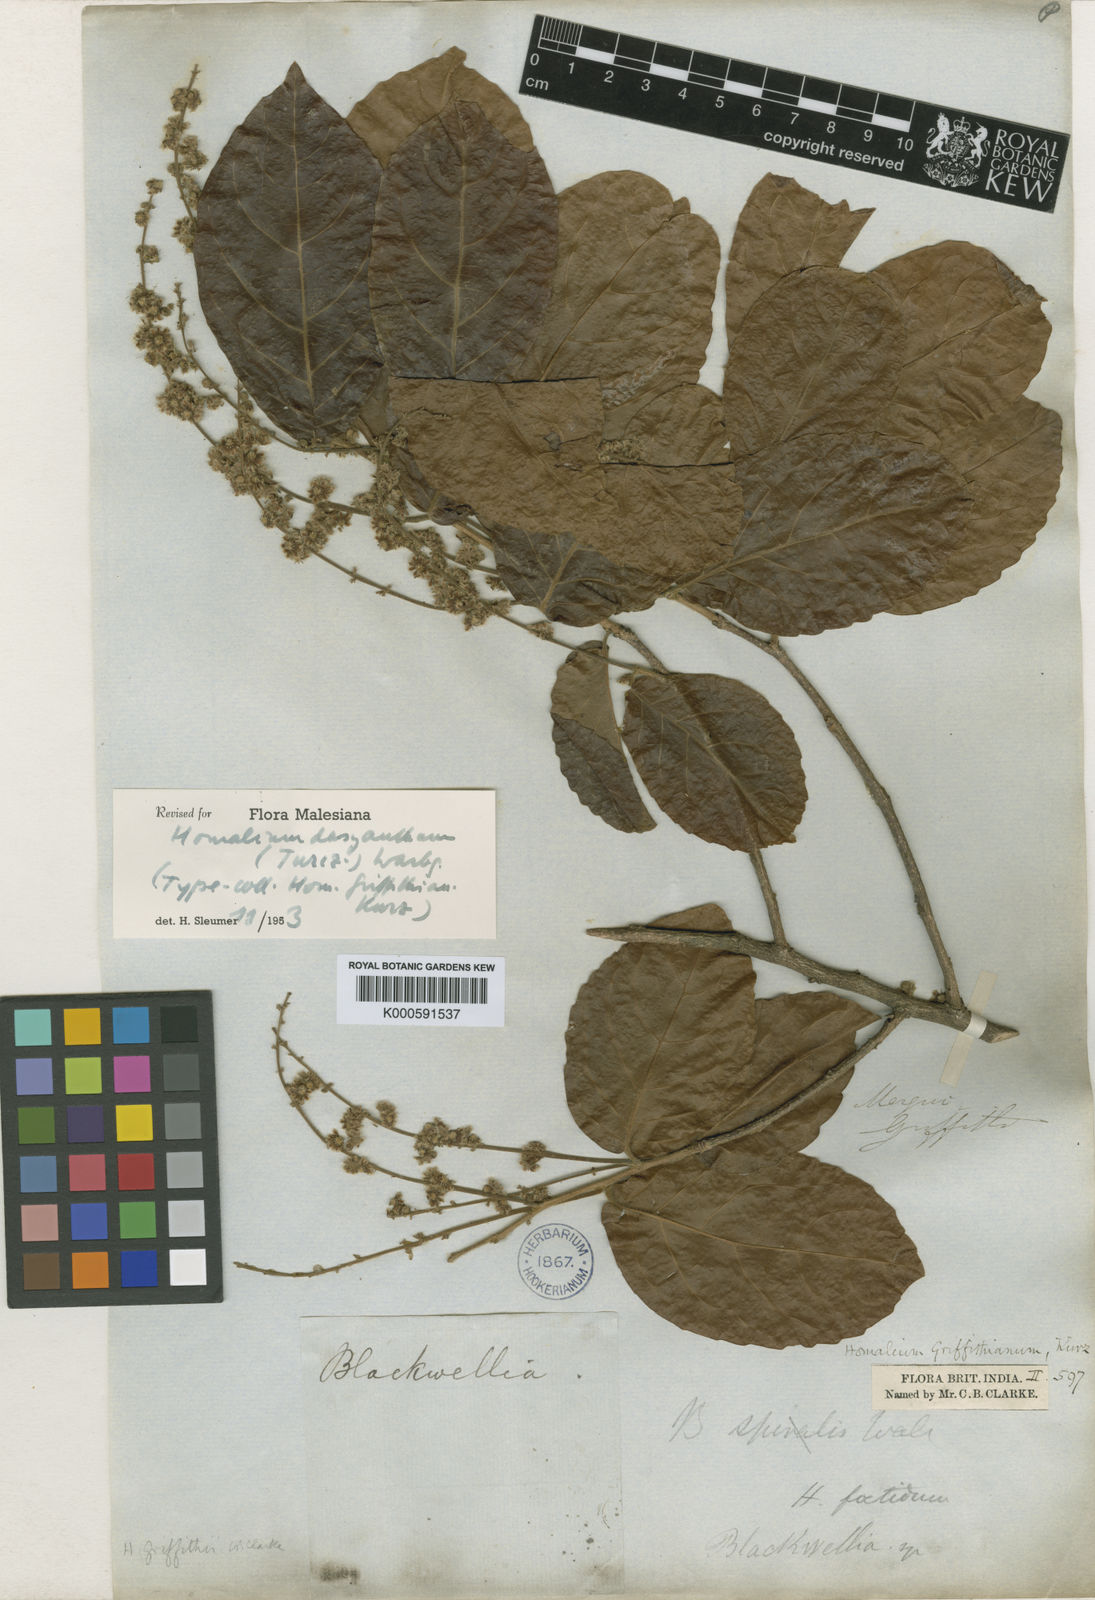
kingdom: Plantae
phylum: Tracheophyta
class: Magnoliopsida
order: Malpighiales
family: Salicaceae
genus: Homalium
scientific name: Homalium dasyanthum
